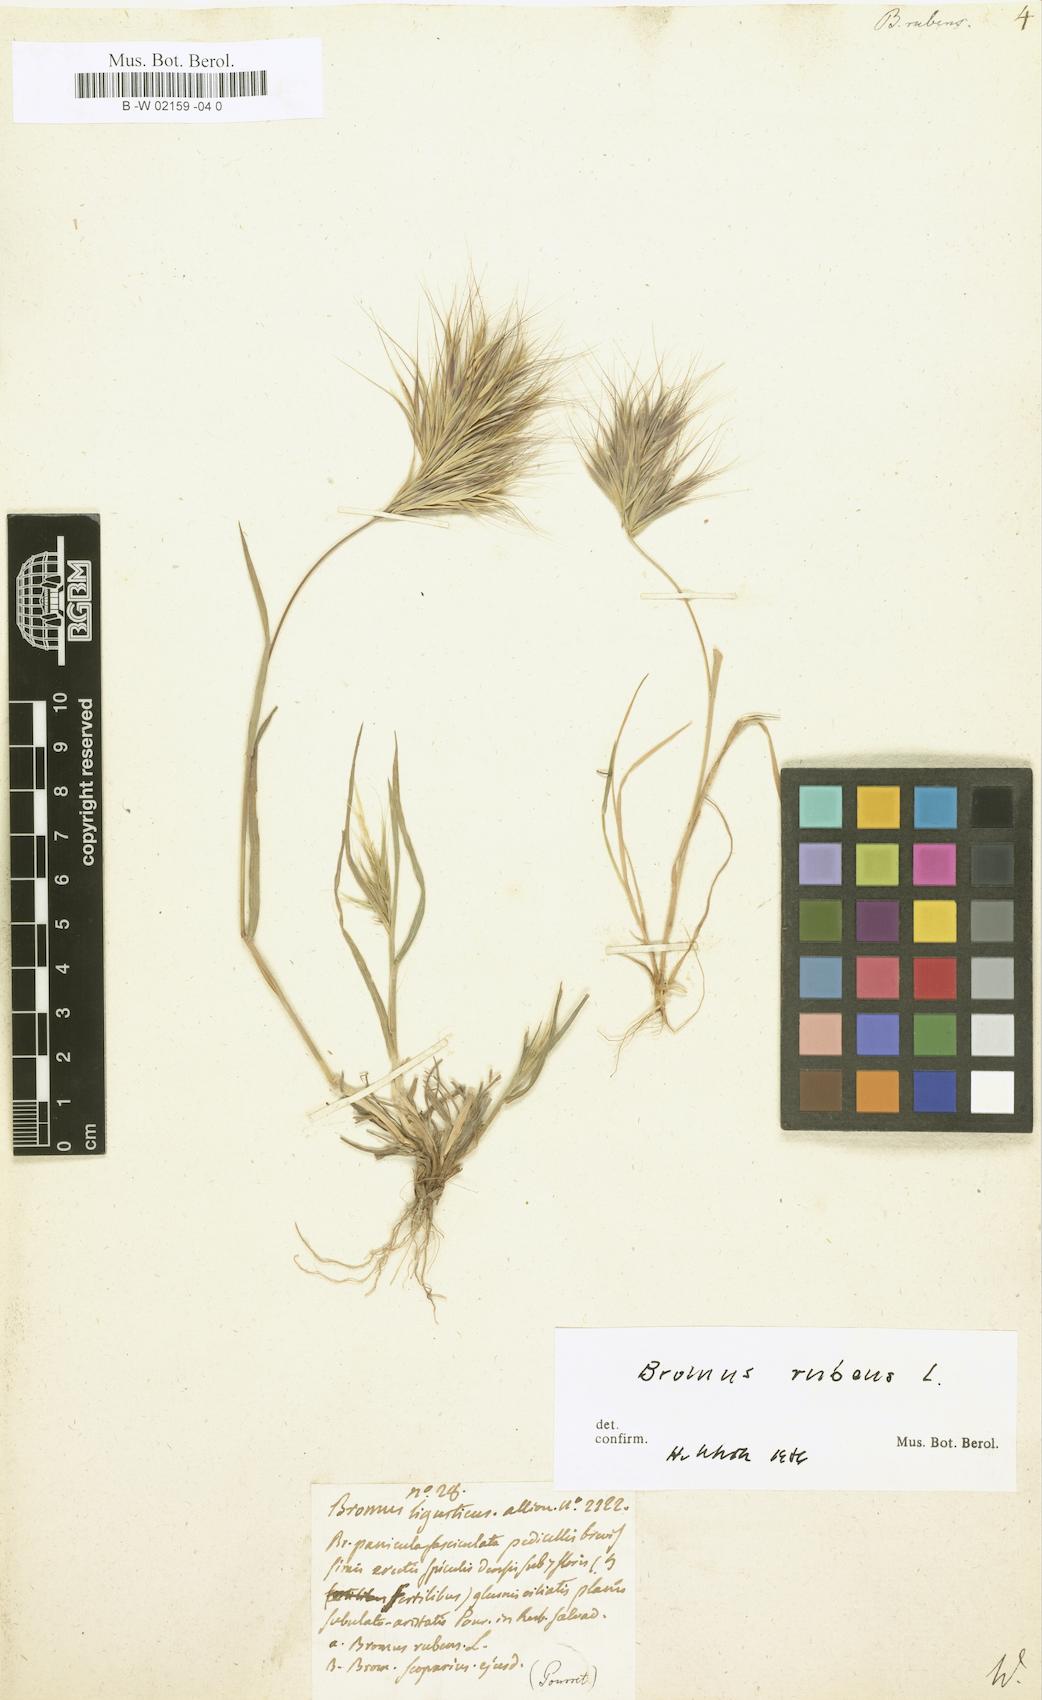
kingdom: Plantae
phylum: Tracheophyta
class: Liliopsida
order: Poales
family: Poaceae
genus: Bromus
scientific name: Bromus rubens
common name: Red brome
